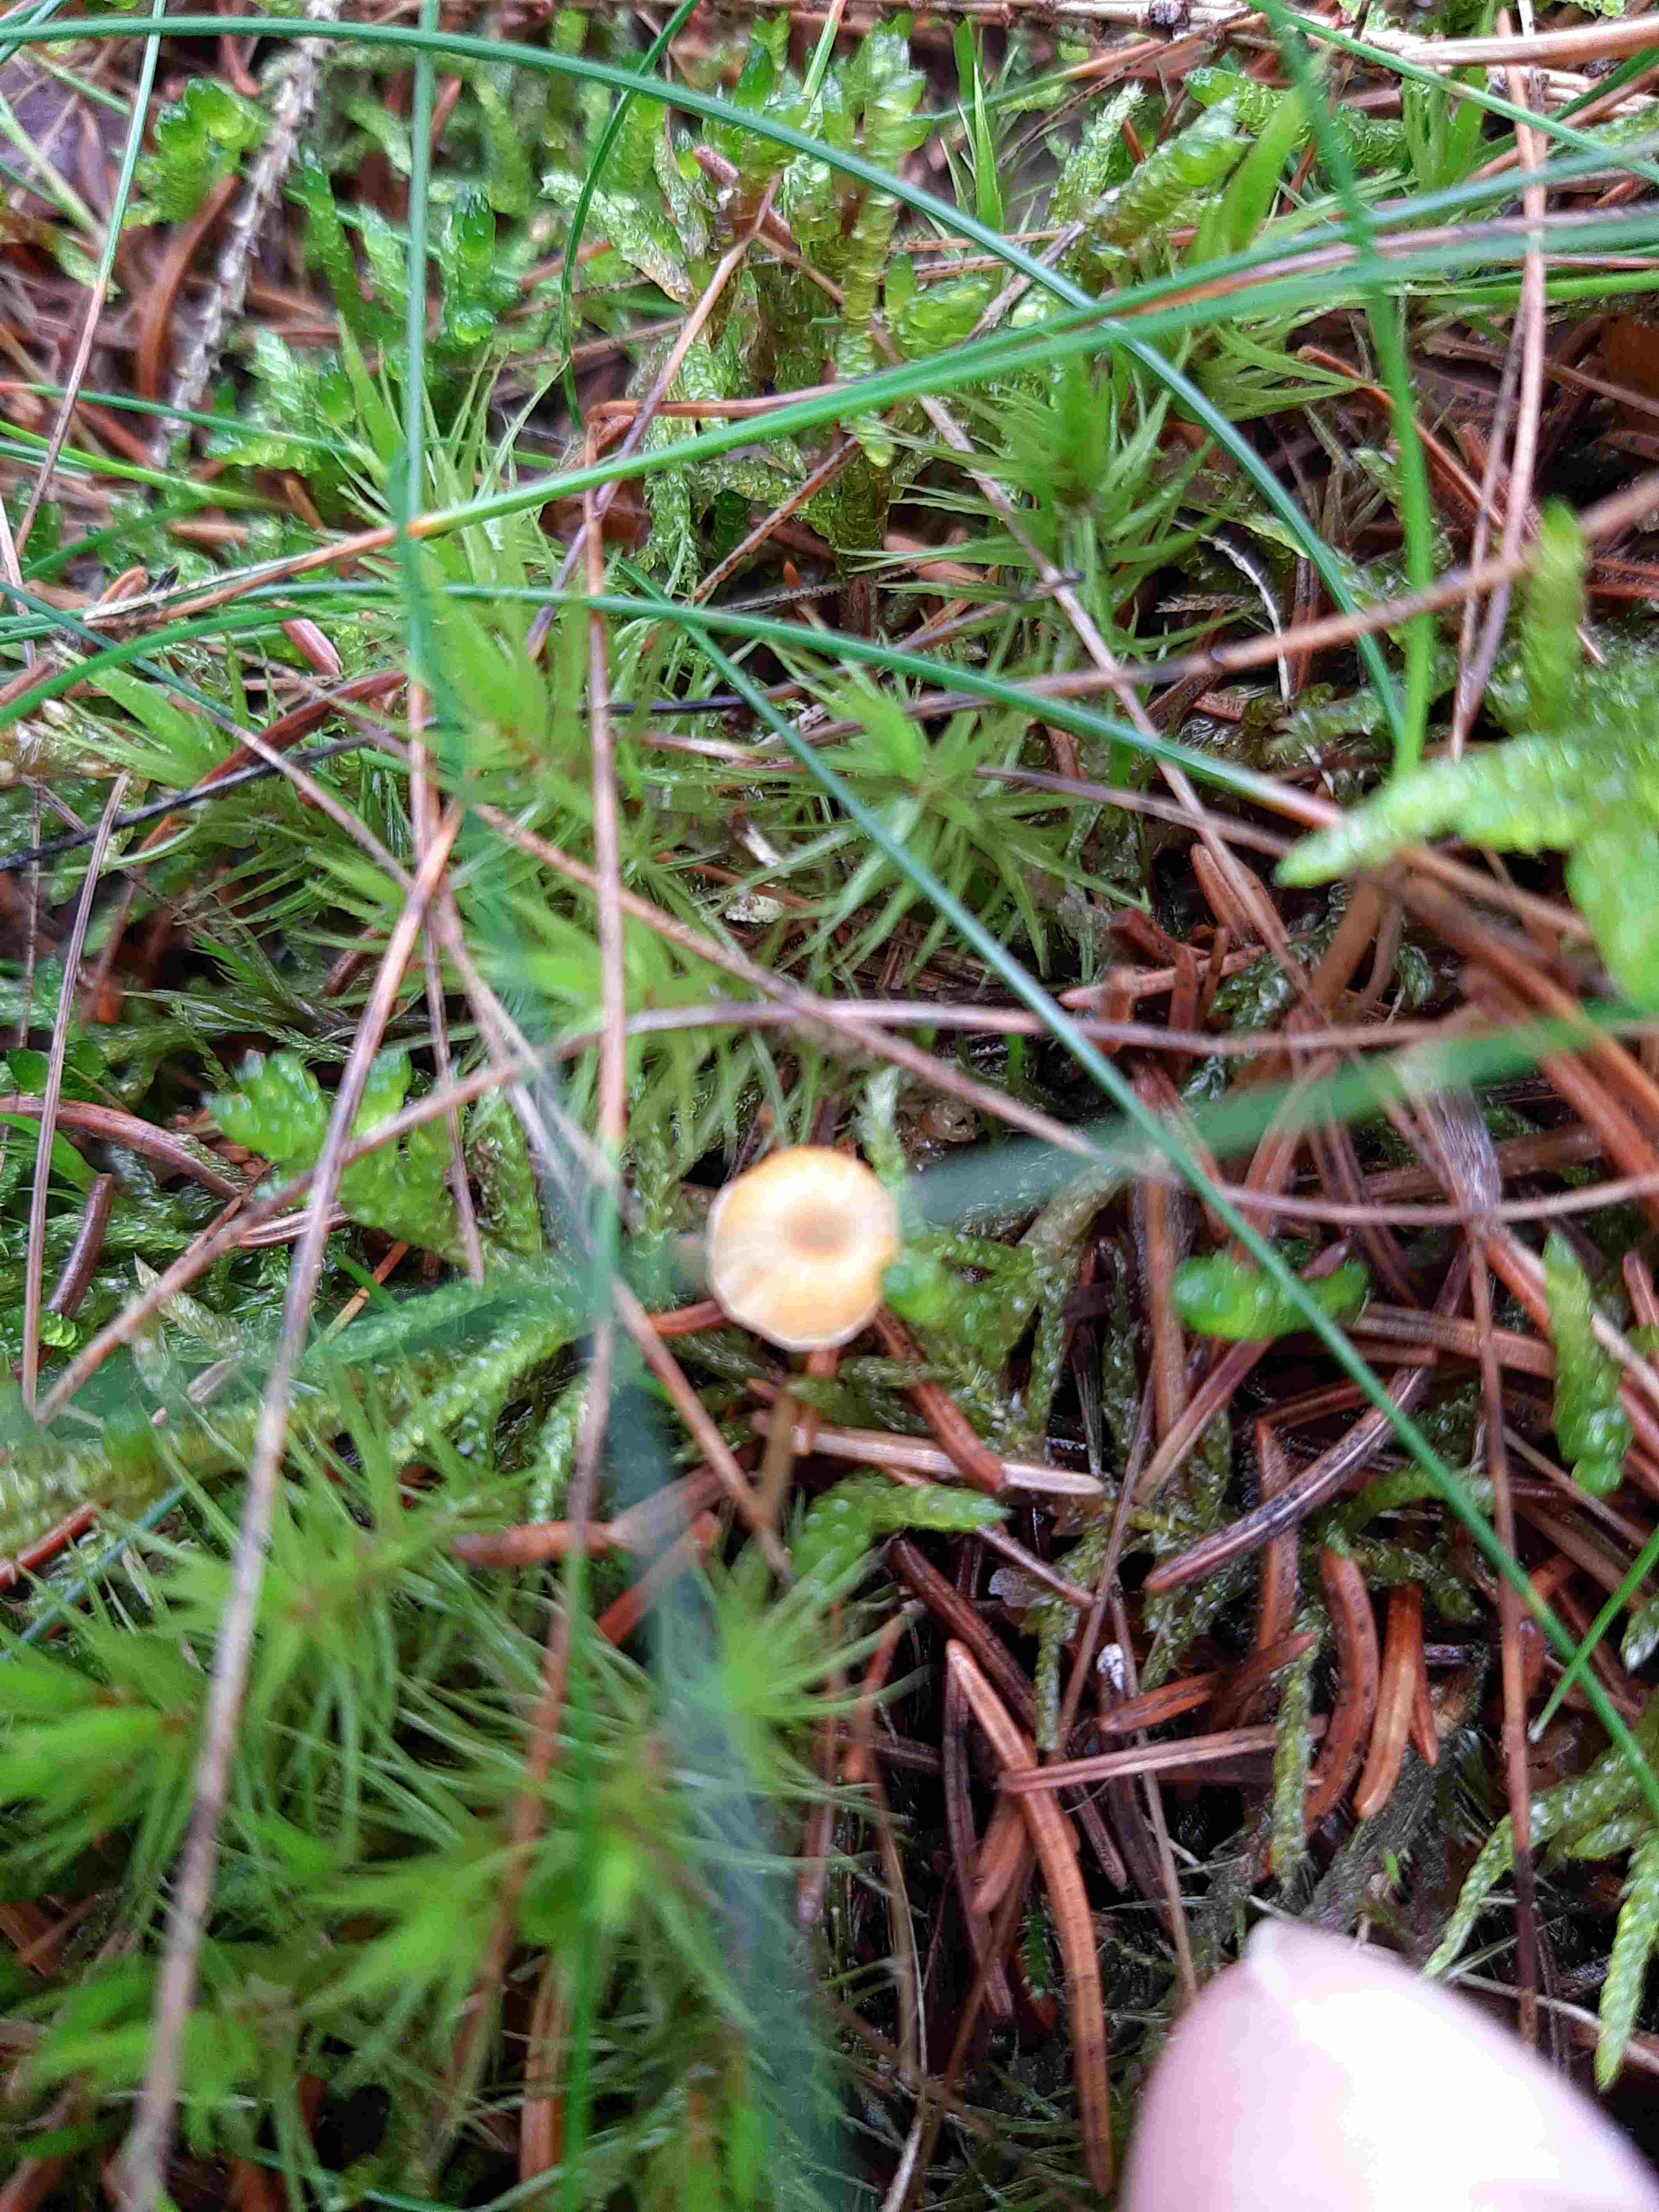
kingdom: Fungi
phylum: Basidiomycota
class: Agaricomycetes
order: Hymenochaetales
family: Rickenellaceae
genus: Rickenella
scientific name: Rickenella fibula
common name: orange mosnavlehat
